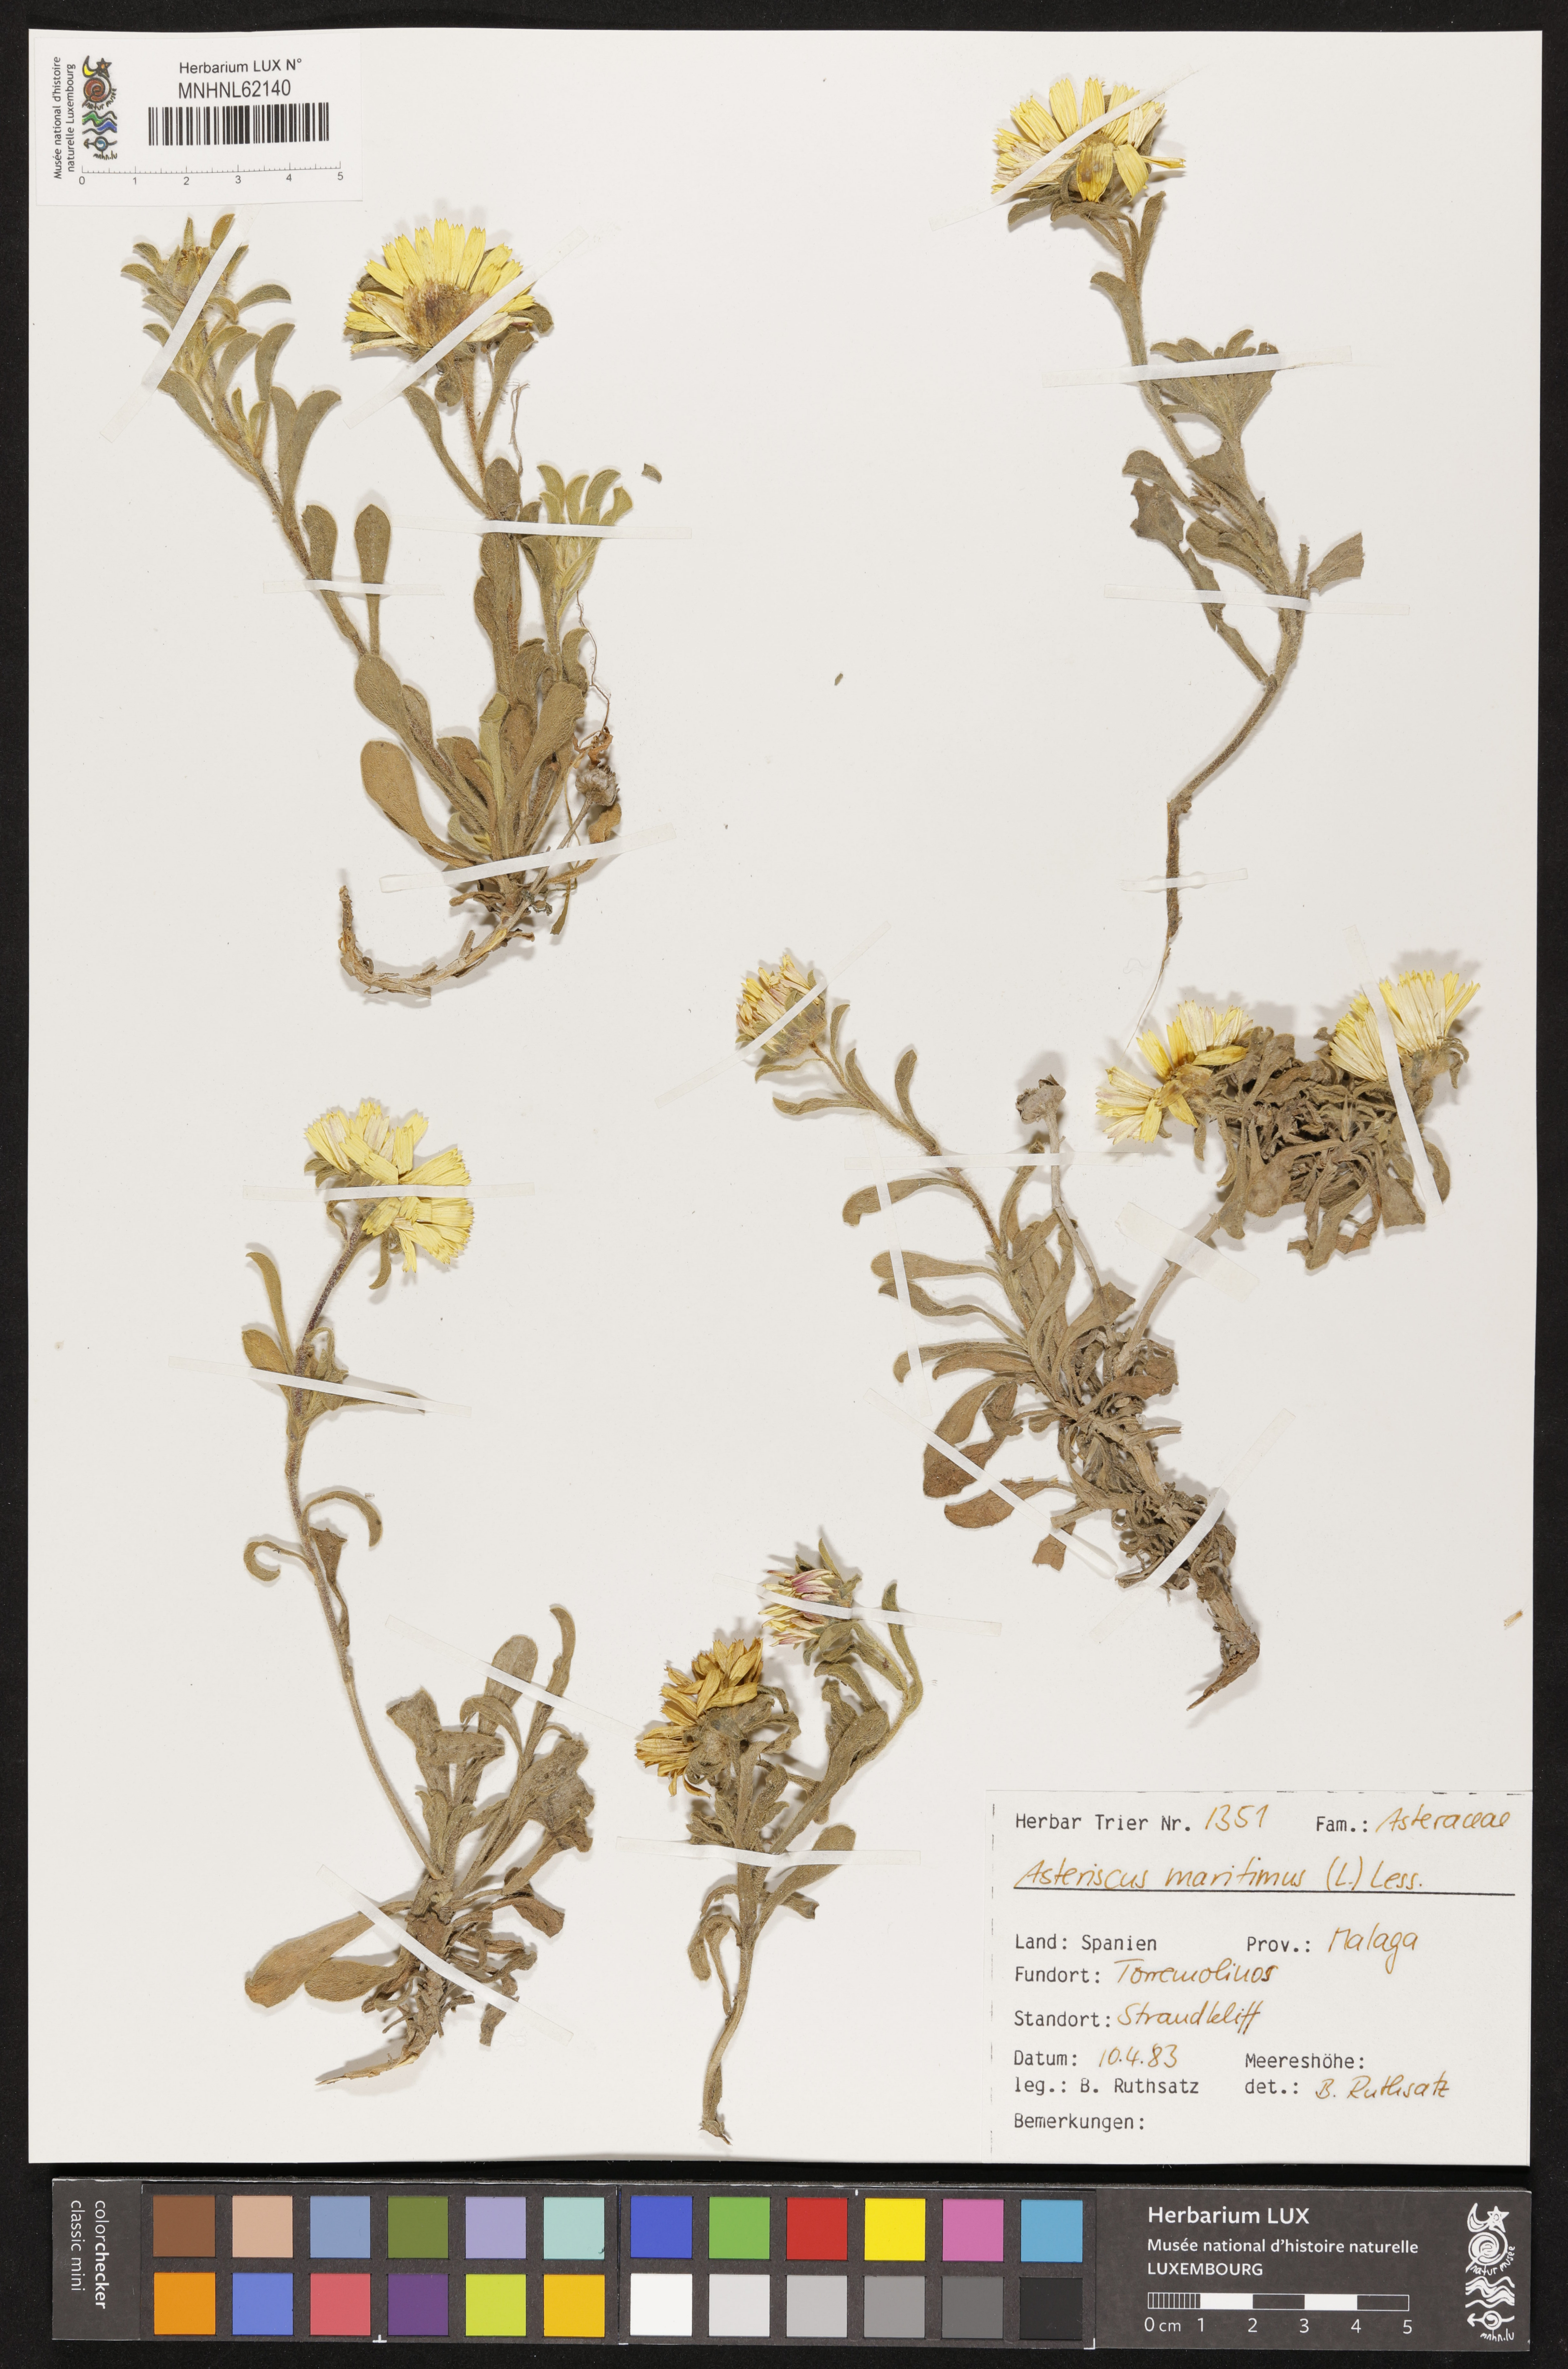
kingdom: Plantae
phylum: Tracheophyta
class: Magnoliopsida
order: Asterales
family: Asteraceae
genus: Pallenis
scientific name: Pallenis maritima
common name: Golden coin daisy
